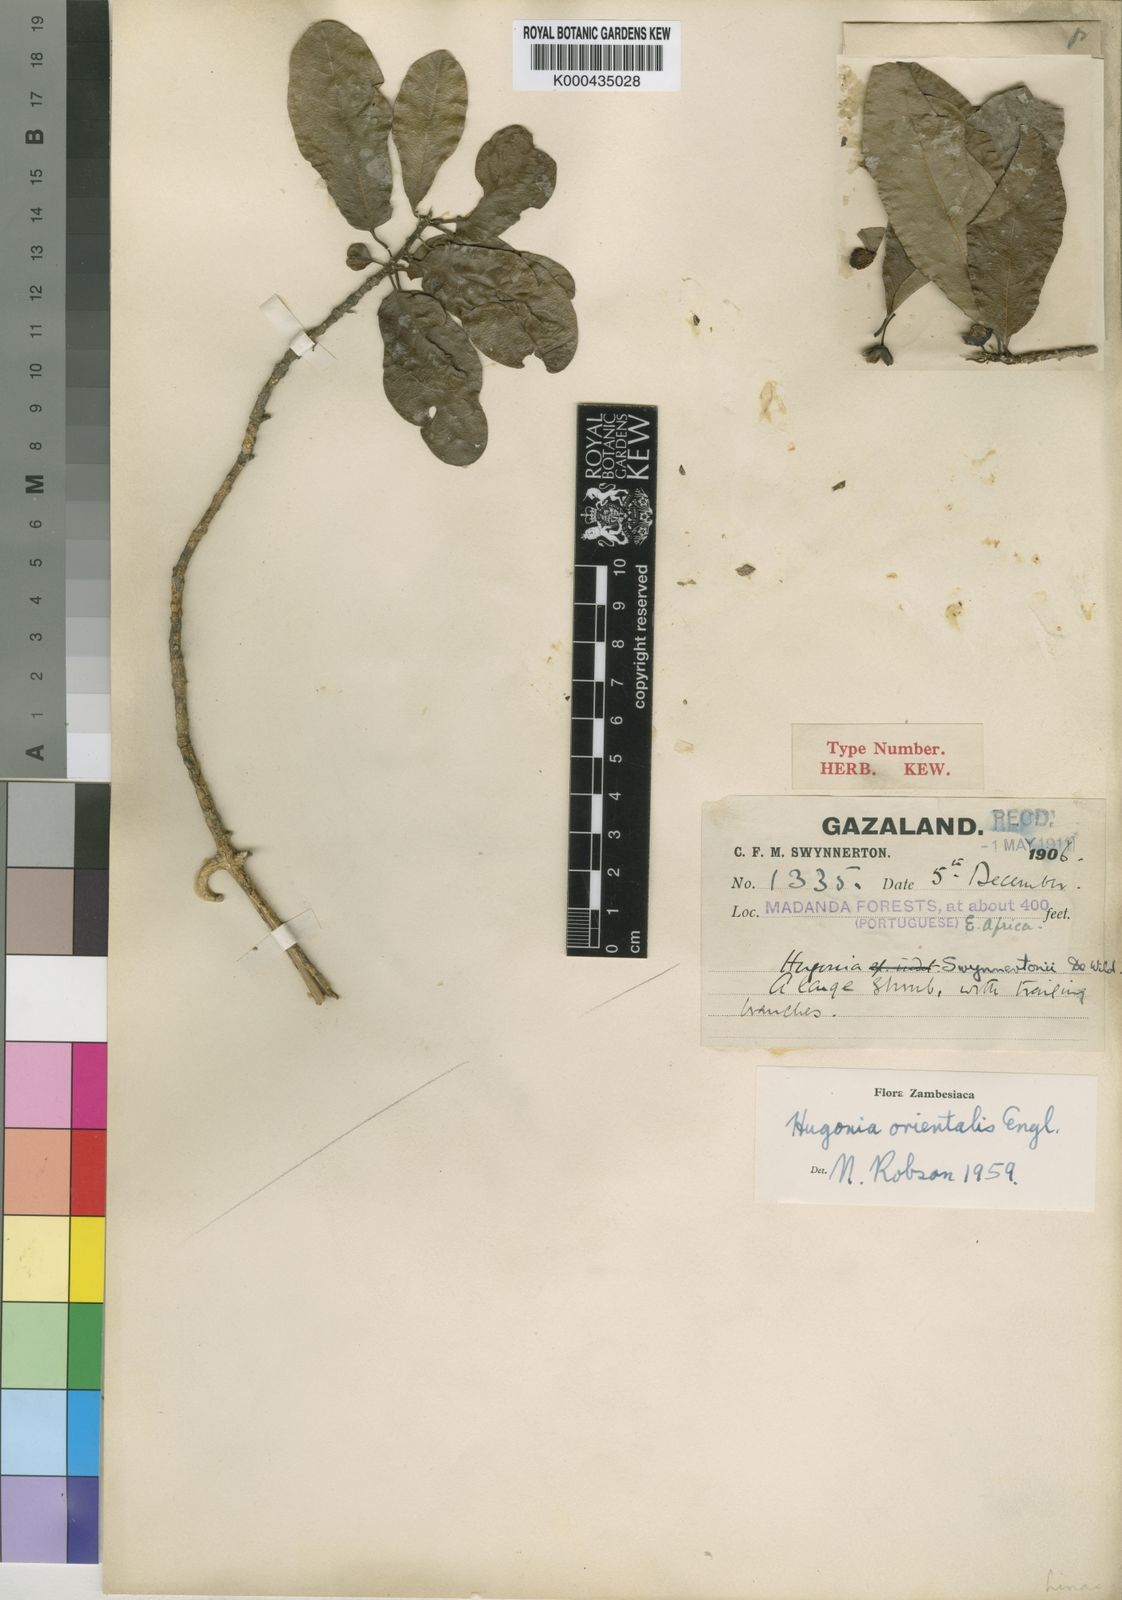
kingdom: Plantae
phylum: Tracheophyta
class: Magnoliopsida
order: Malpighiales
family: Linaceae
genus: Hugonia
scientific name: Hugonia orientalis
